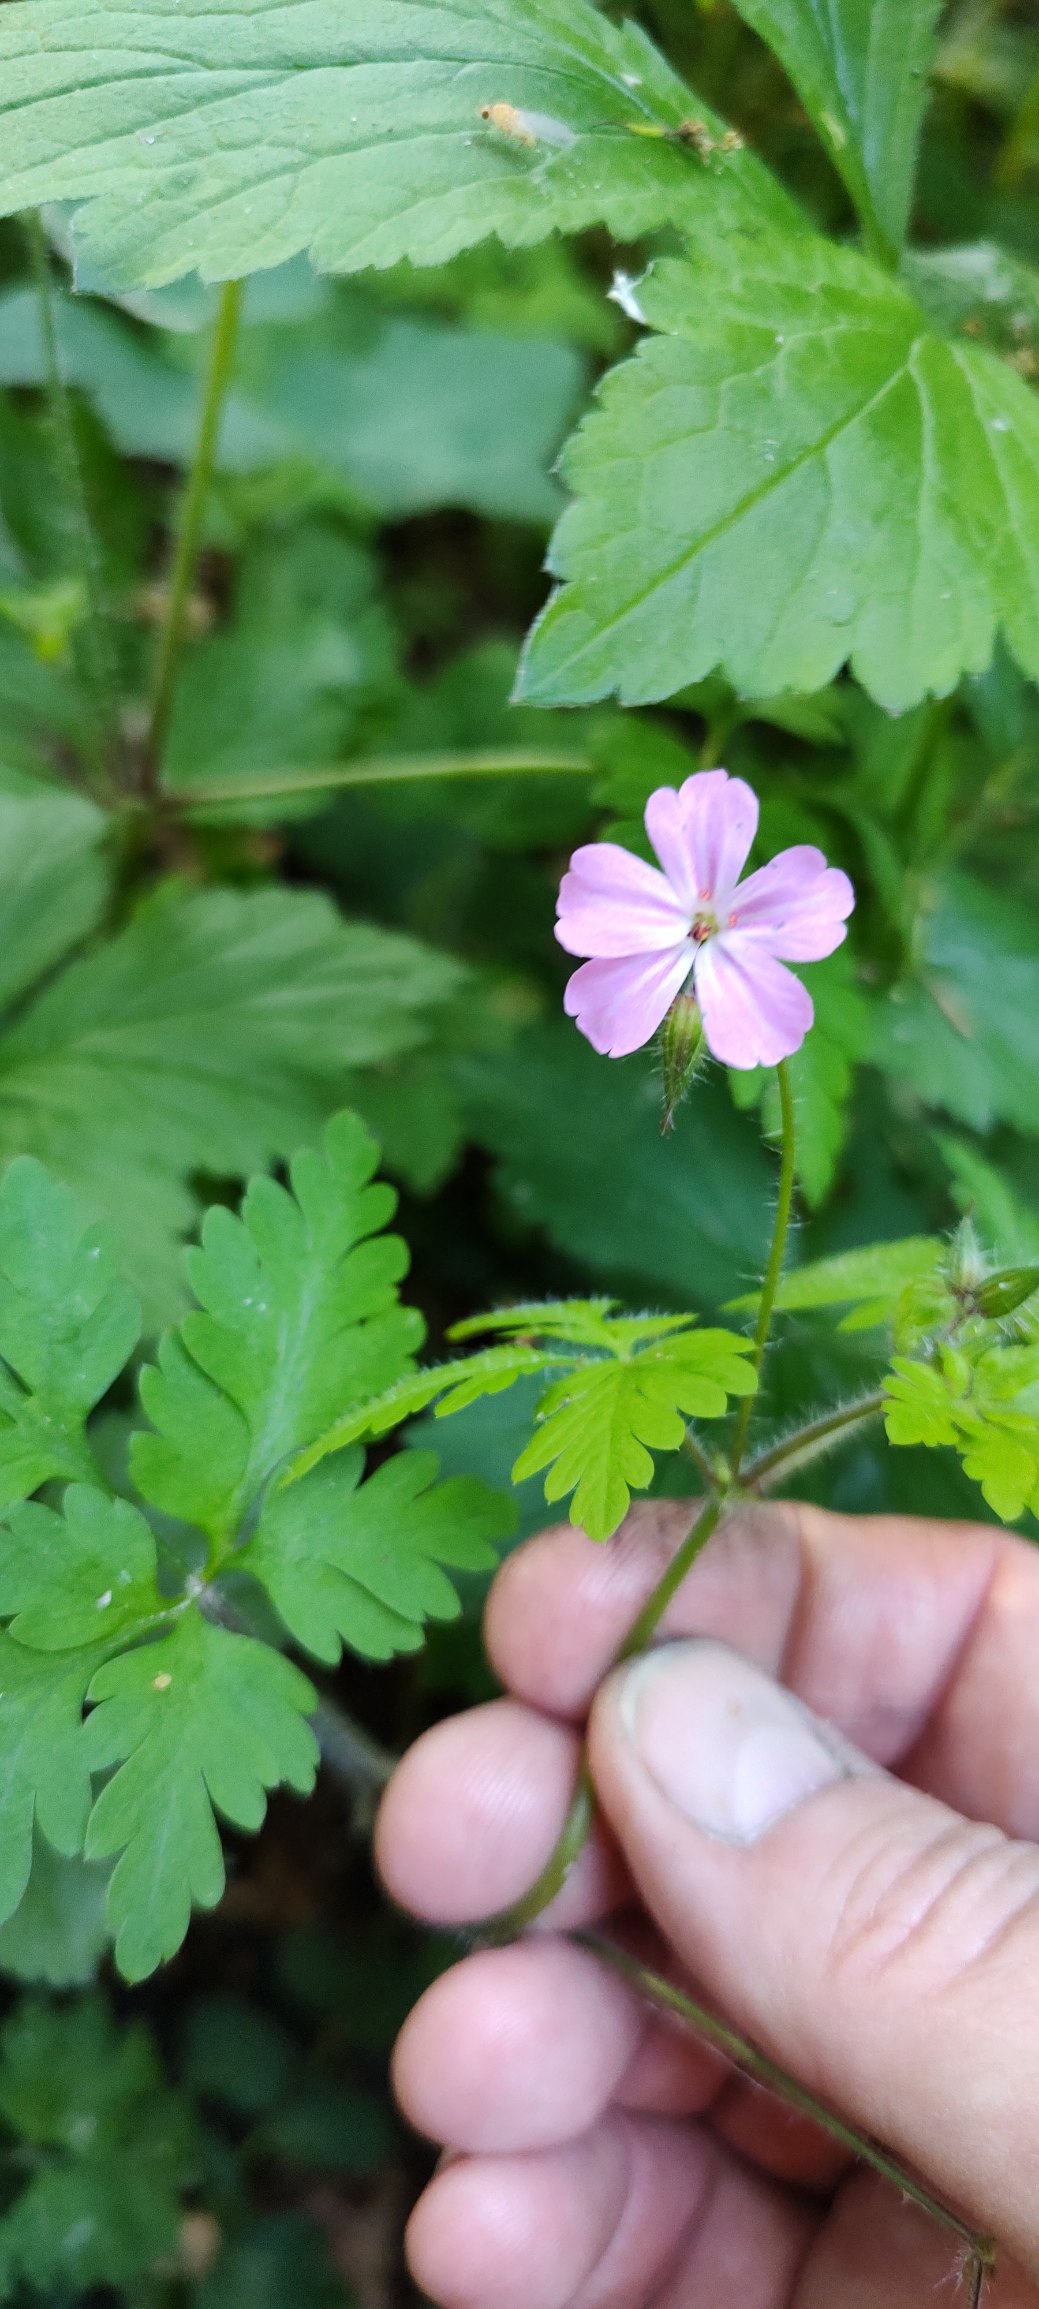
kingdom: Plantae
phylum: Tracheophyta
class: Magnoliopsida
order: Geraniales
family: Geraniaceae
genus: Geranium
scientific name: Geranium robertianum
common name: Stinkende storkenæb
